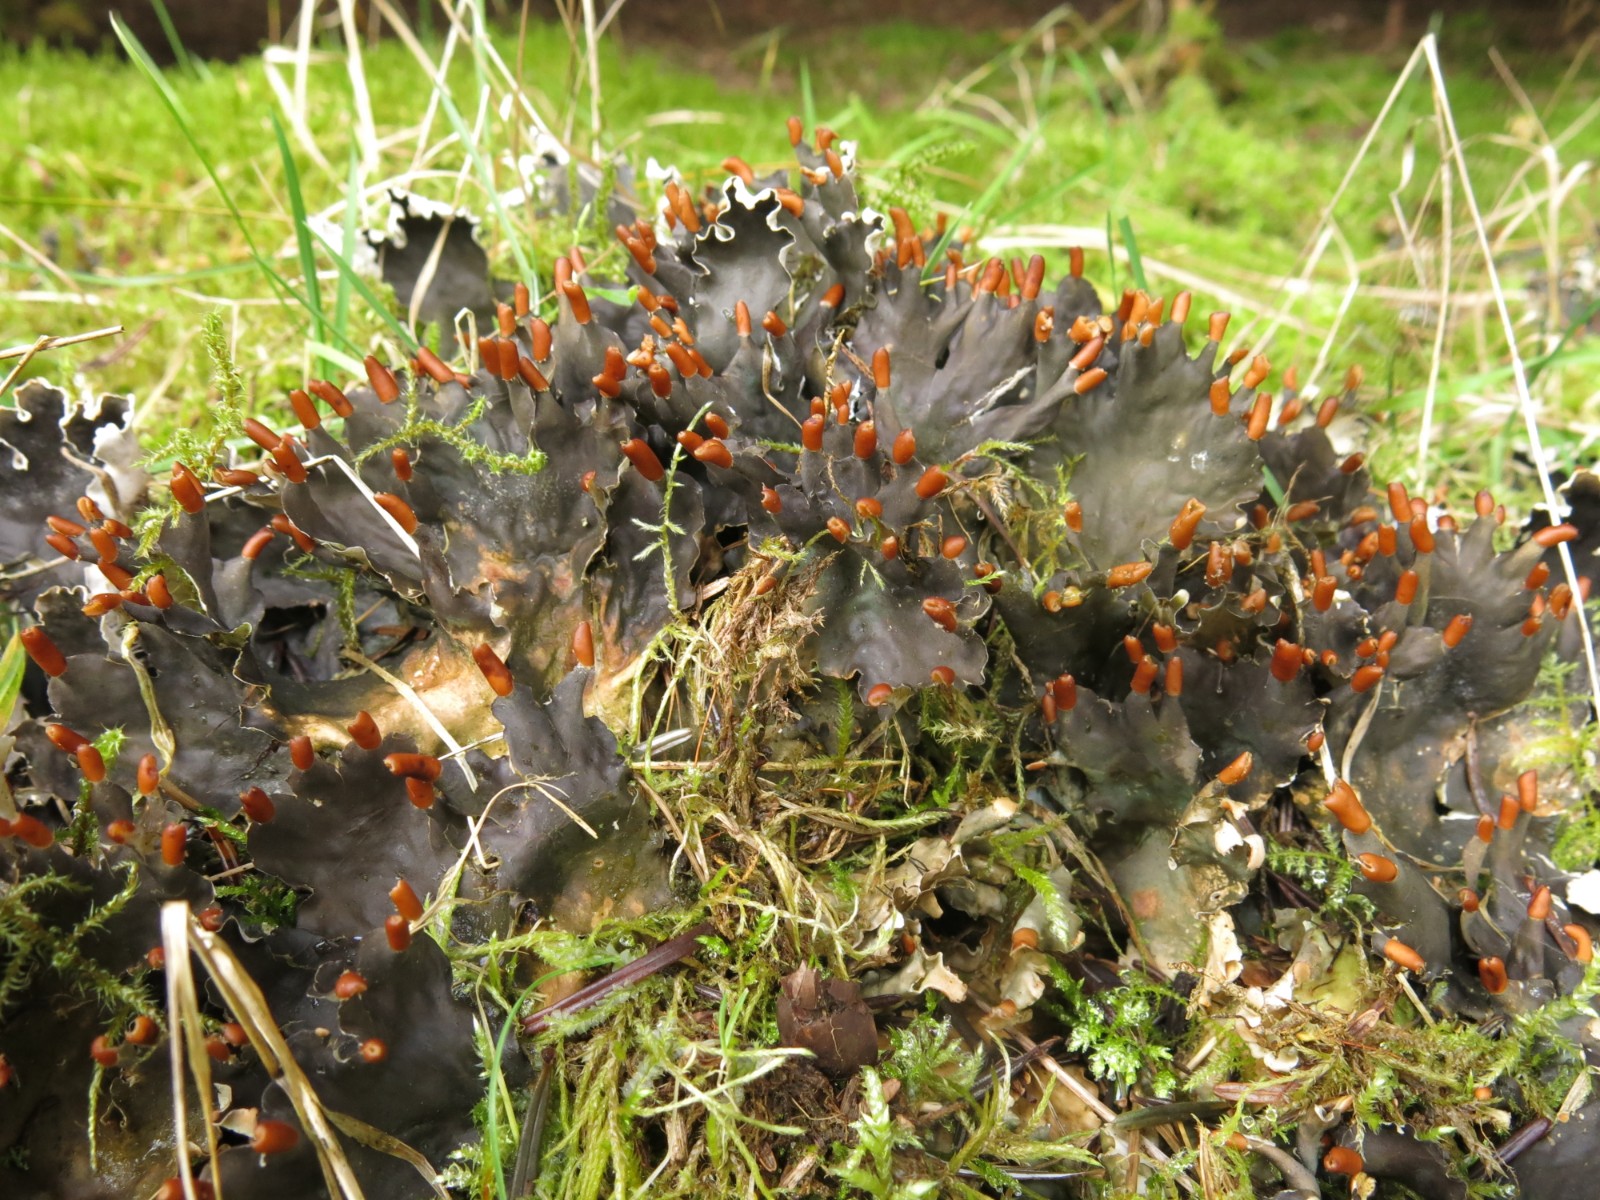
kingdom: Fungi
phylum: Ascomycota
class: Lecanoromycetes
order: Peltigerales
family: Peltigeraceae
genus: Peltigera
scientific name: Peltigera hymenina
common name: hinde-skjoldlav
